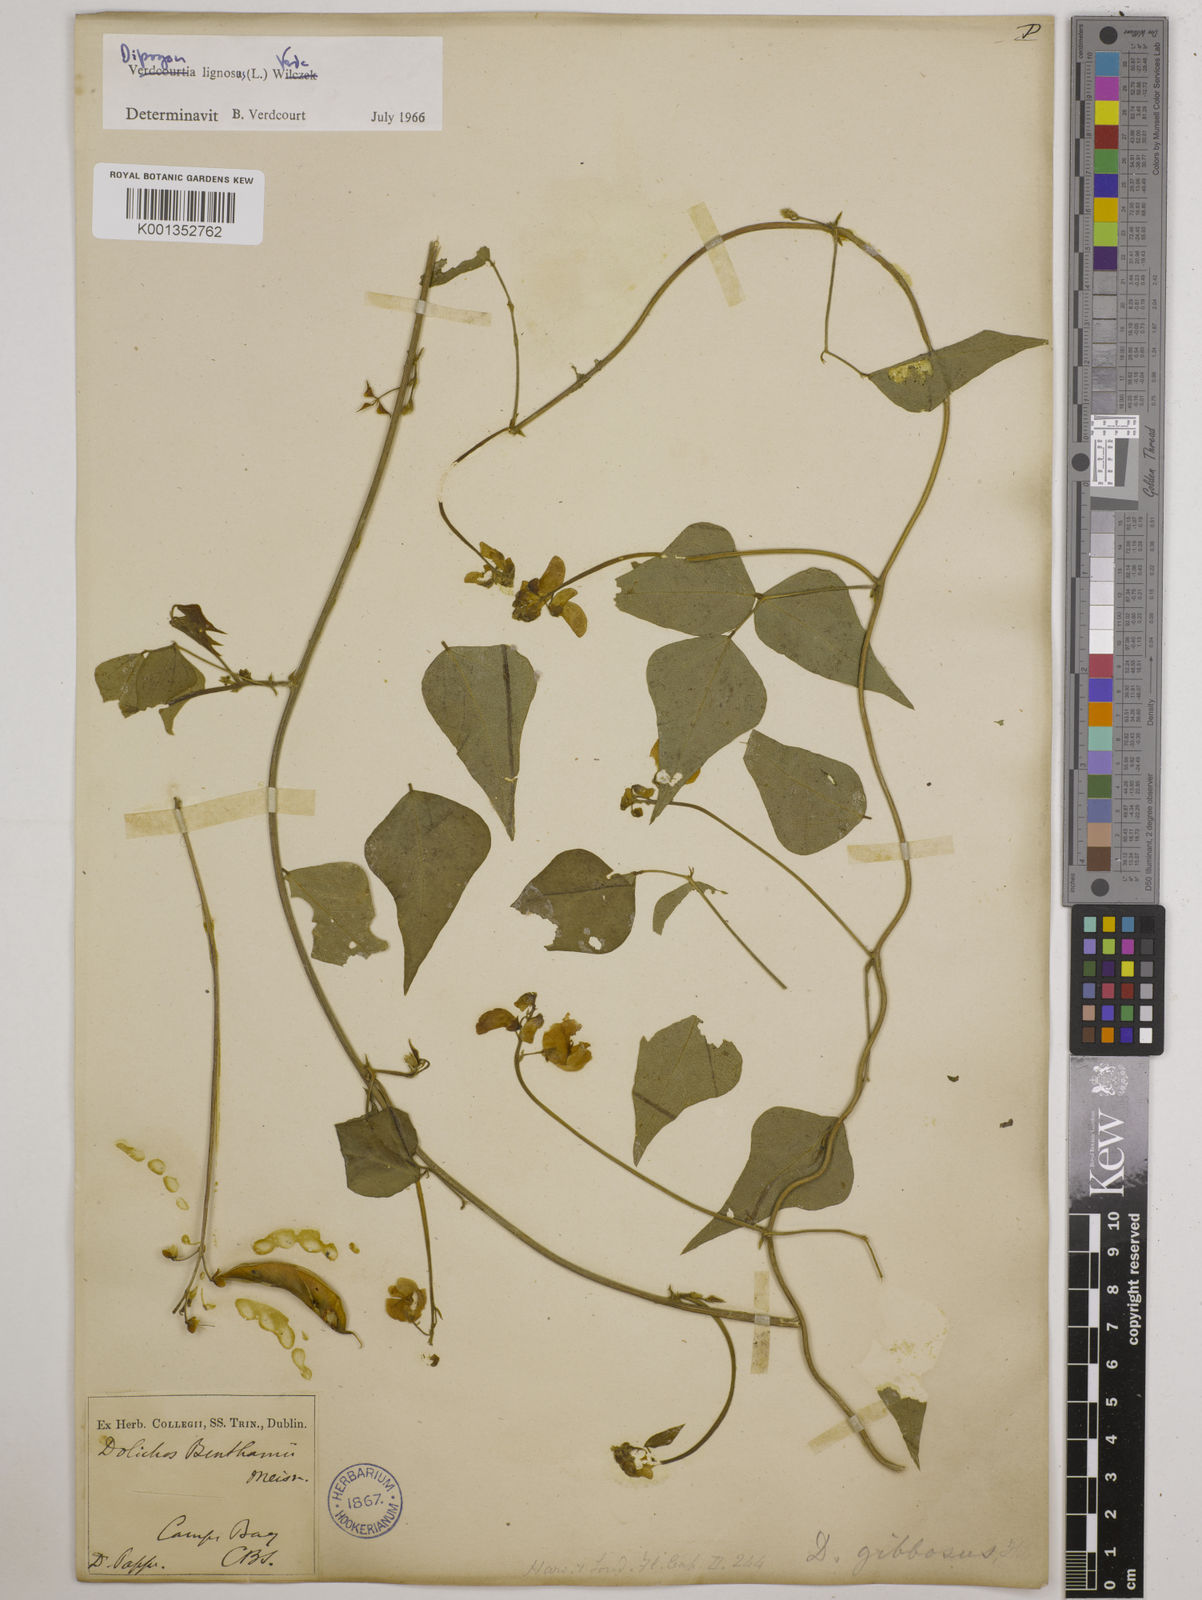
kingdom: Plantae
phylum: Tracheophyta
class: Magnoliopsida
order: Fabales
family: Fabaceae
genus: Dipogon
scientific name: Dipogon lignosus
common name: Okie bean
